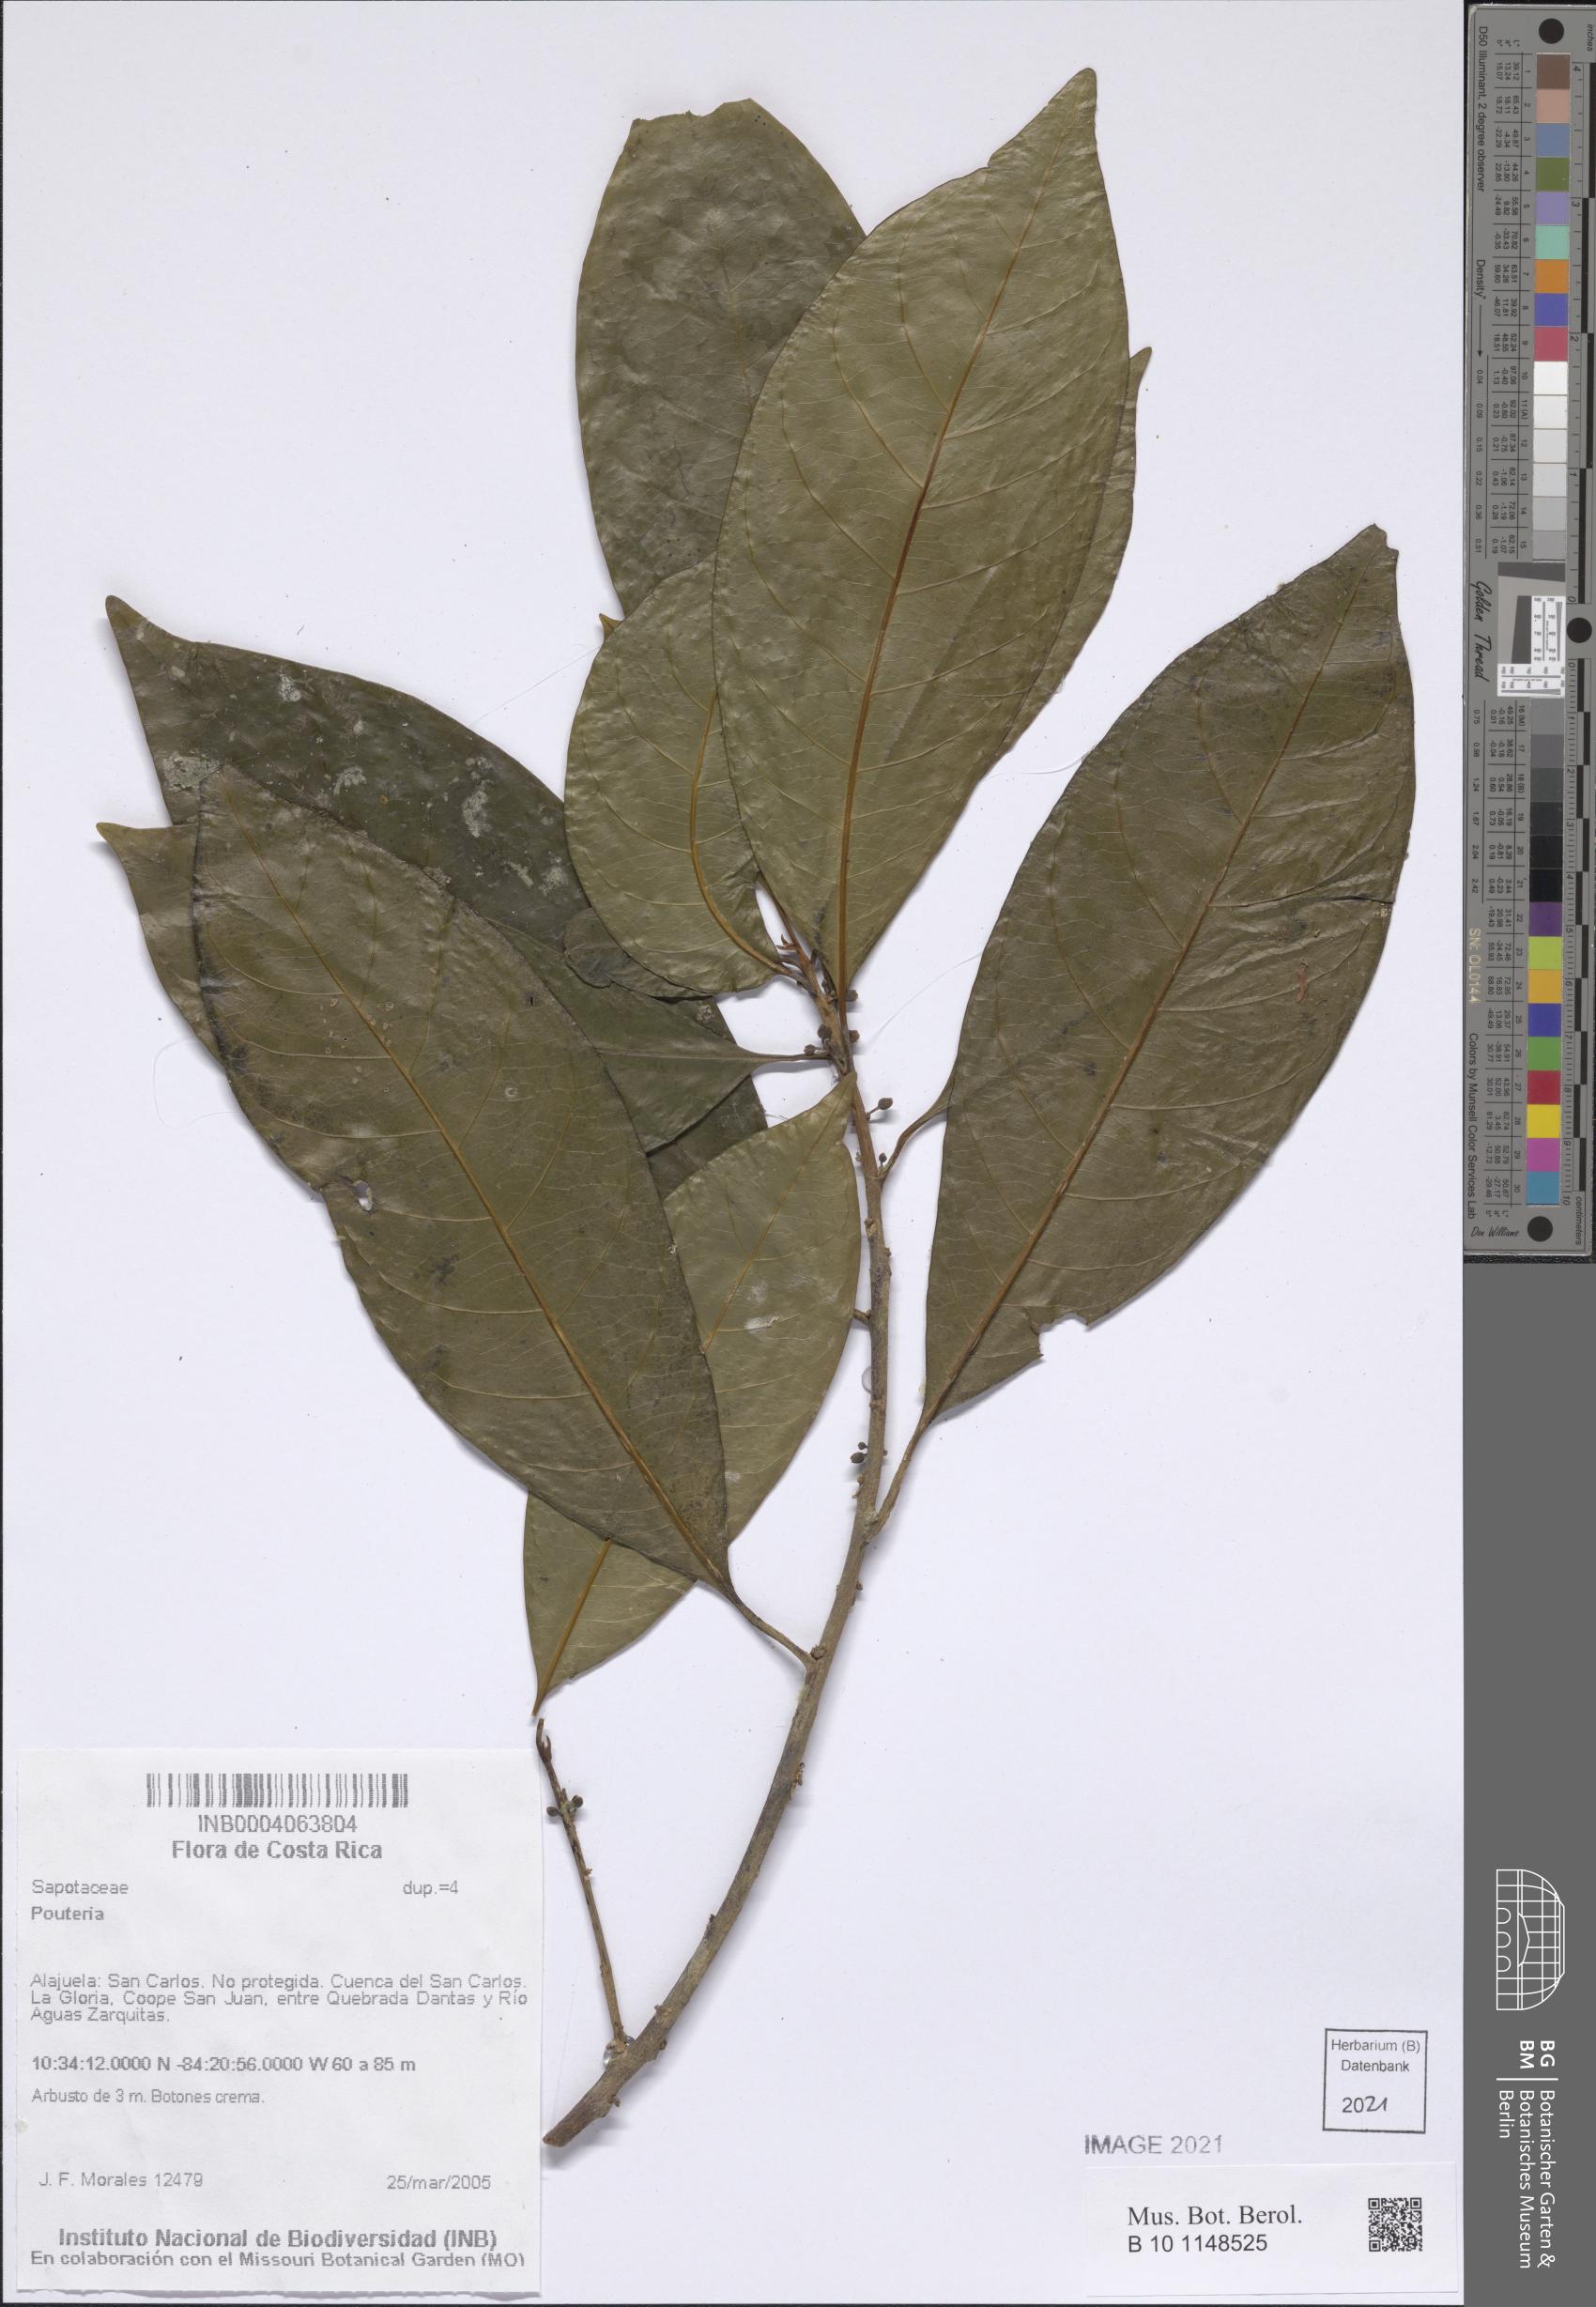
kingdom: Plantae
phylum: Tracheophyta
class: Magnoliopsida
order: Ericales
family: Sapotaceae
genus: Pouteria
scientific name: Pouteria
